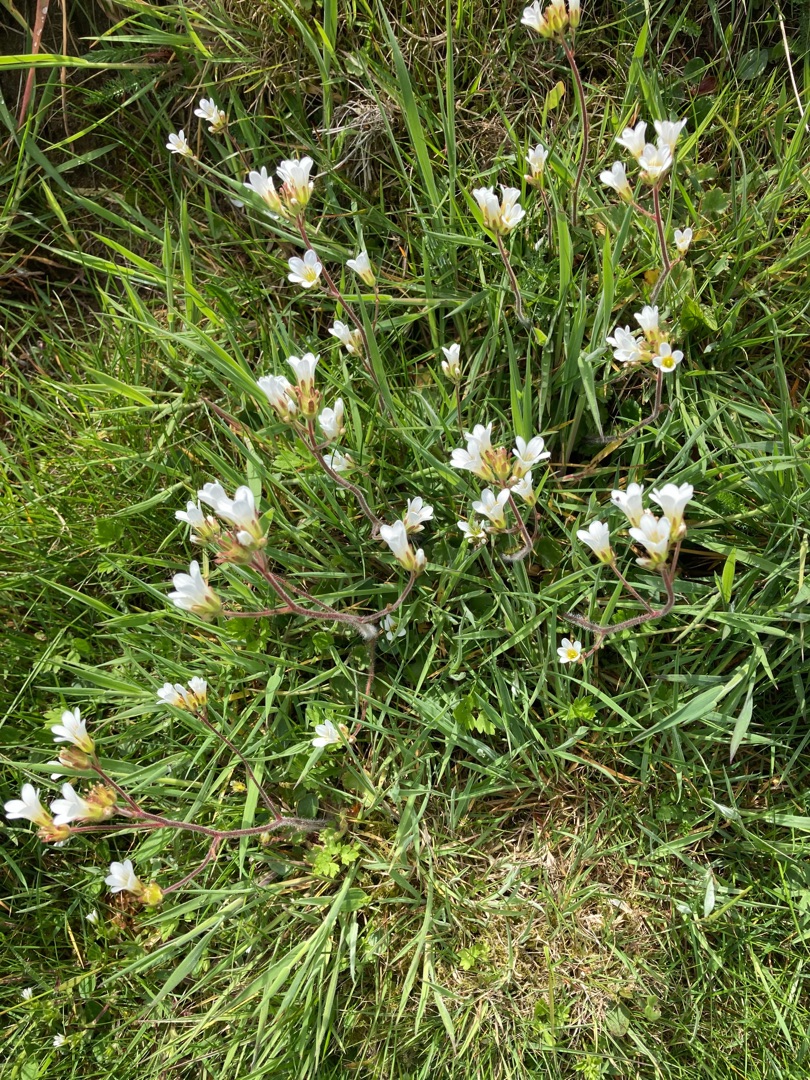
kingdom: Plantae
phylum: Tracheophyta
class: Magnoliopsida
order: Saxifragales
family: Saxifragaceae
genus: Saxifraga
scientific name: Saxifraga granulata
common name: Kornet stenbræk
